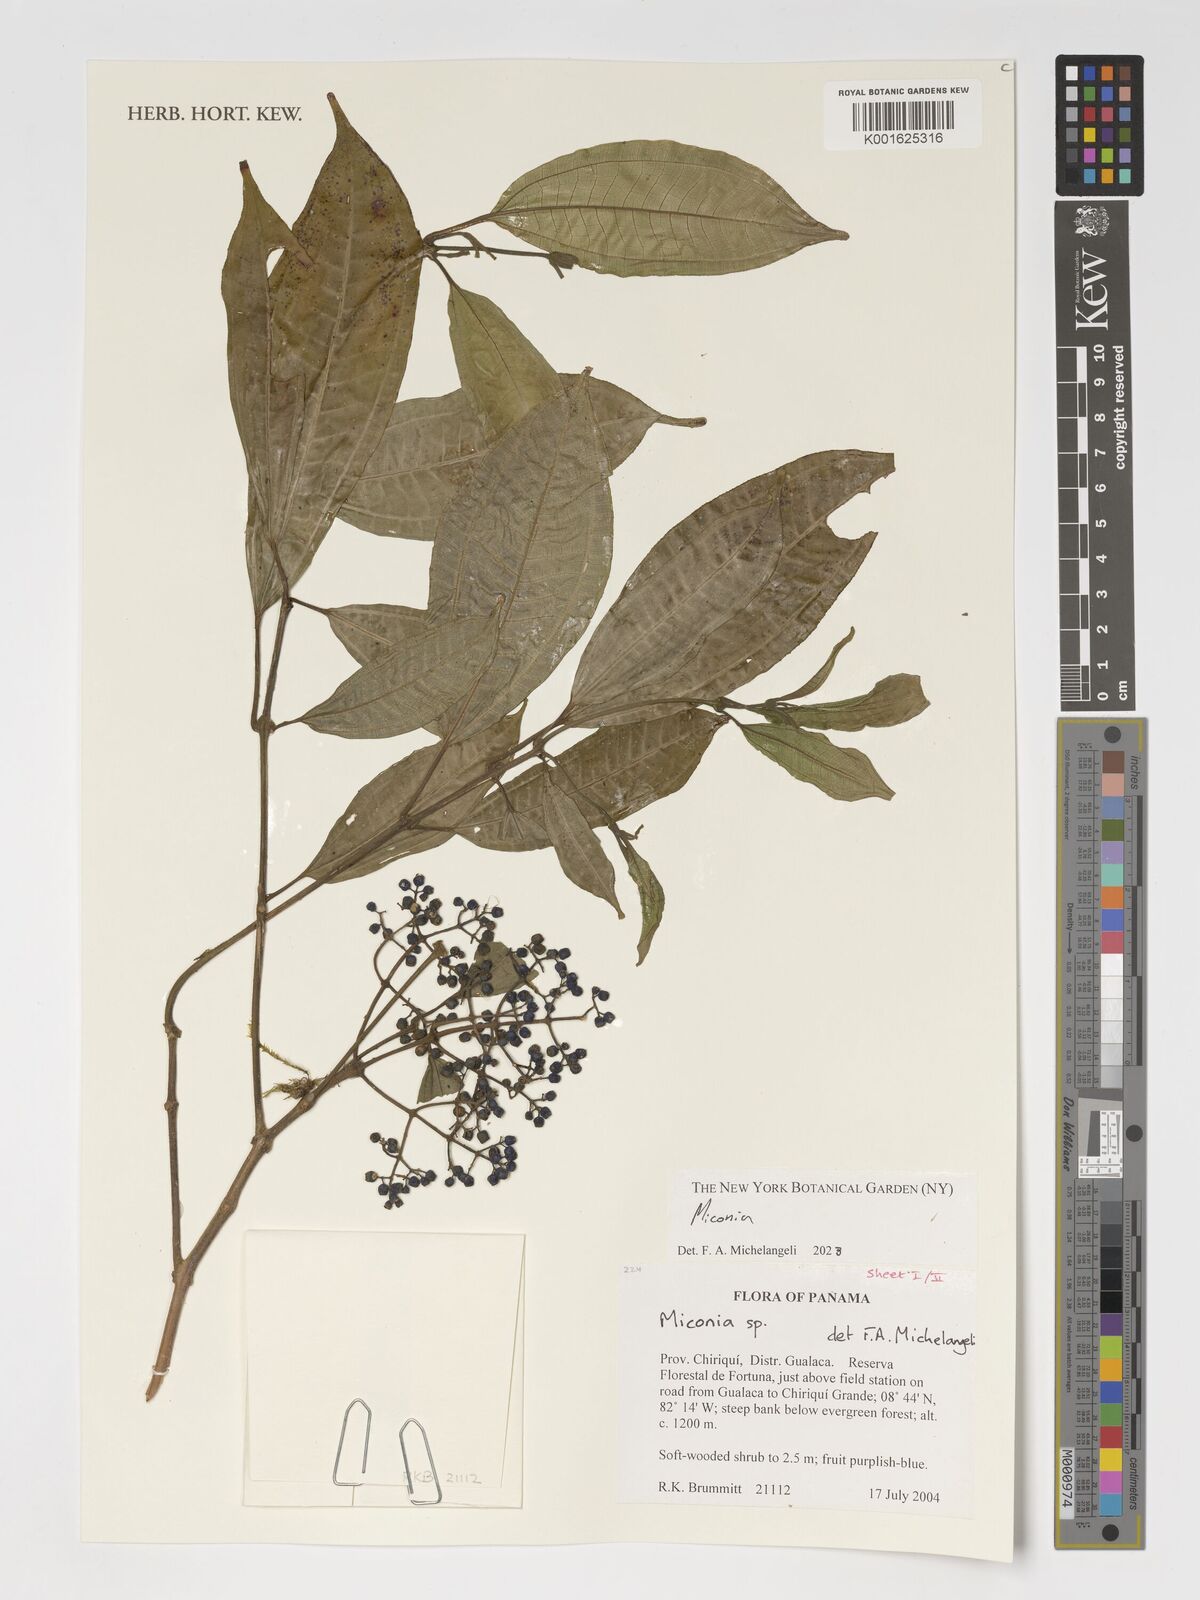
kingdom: Plantae
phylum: Tracheophyta
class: Magnoliopsida
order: Myrtales
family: Melastomataceae
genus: Miconia
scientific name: Miconia
